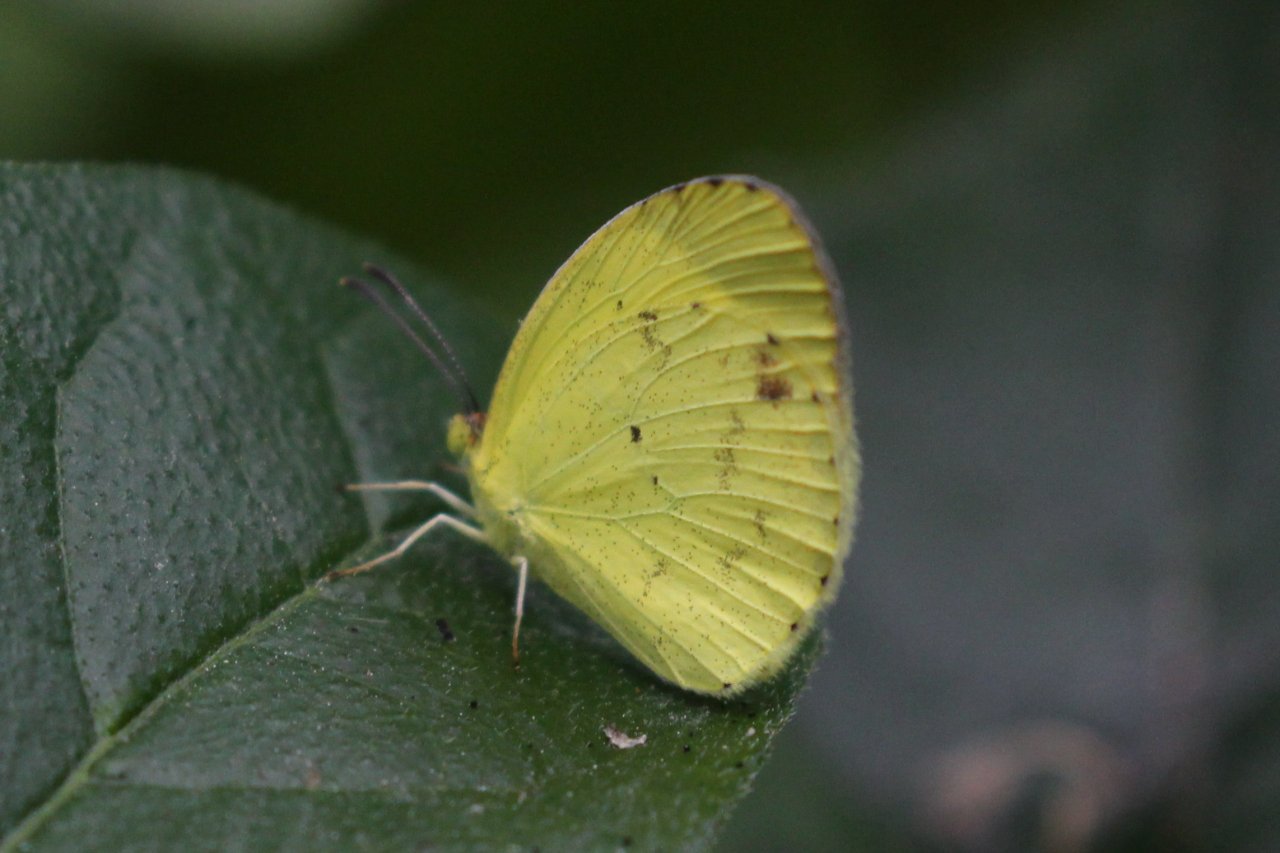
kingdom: Animalia
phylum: Arthropoda
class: Insecta
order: Lepidoptera
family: Pieridae
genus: Pyrisitia
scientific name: Pyrisitia nise
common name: Mimosa Yellow
